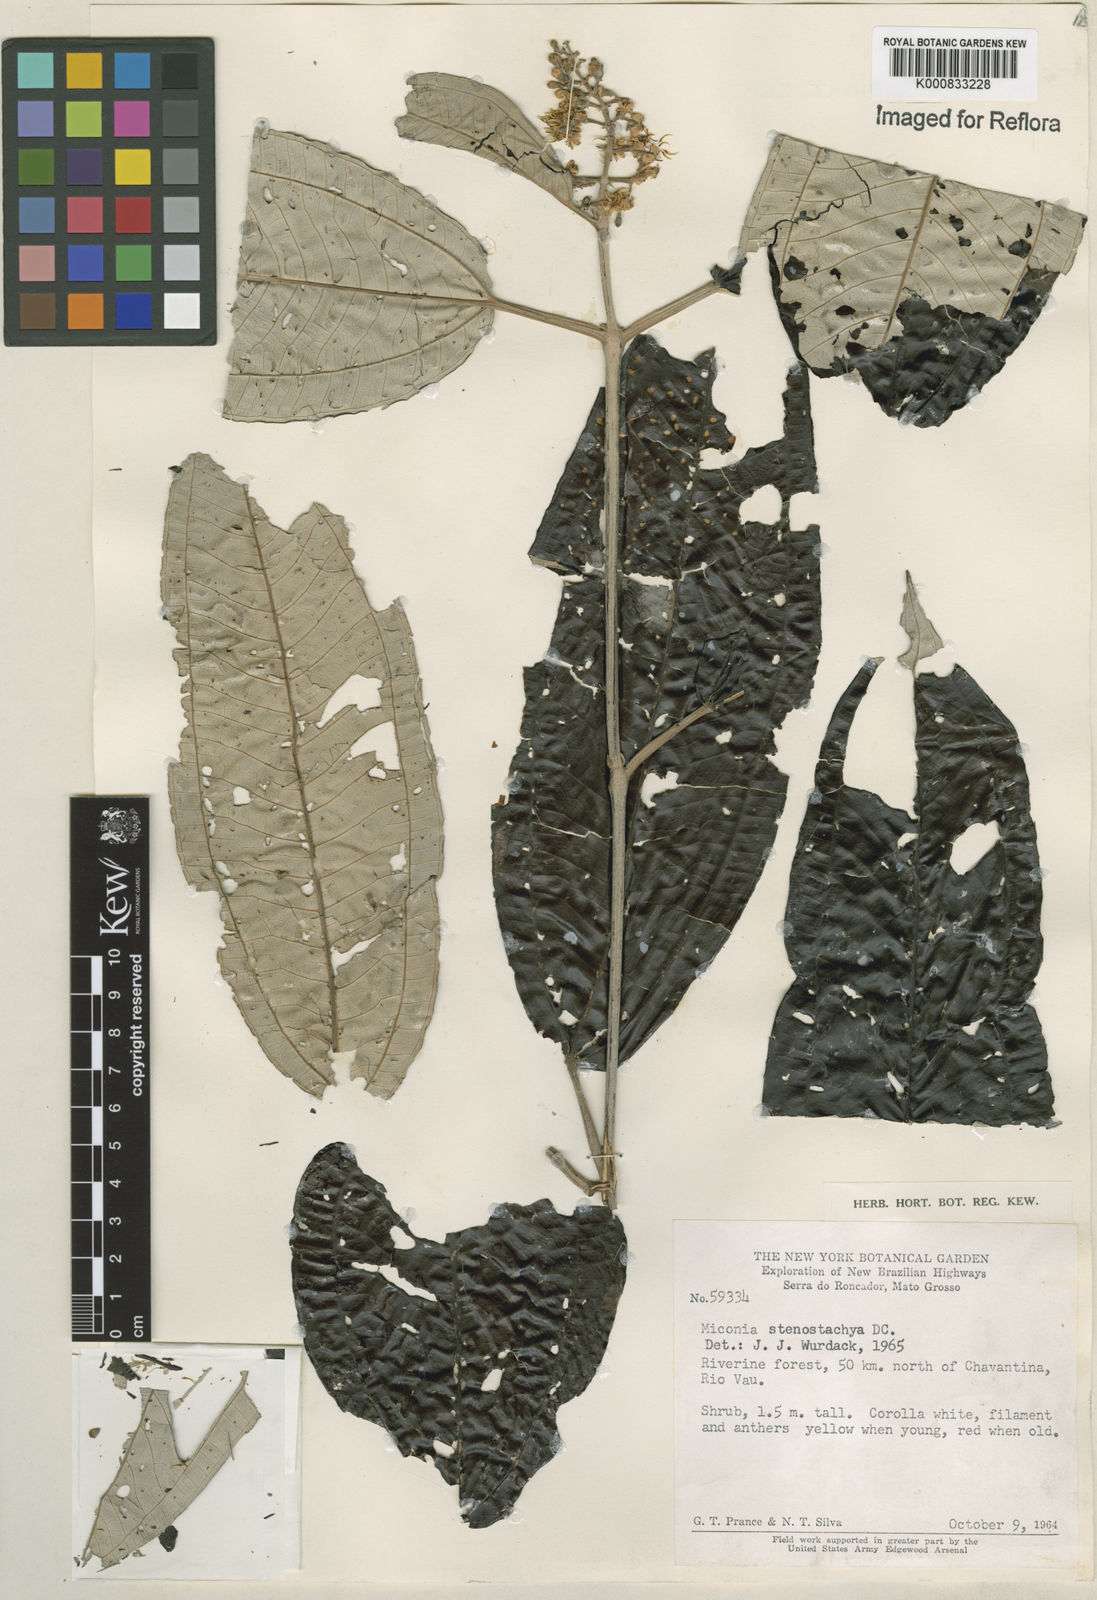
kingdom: Plantae
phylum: Tracheophyta
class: Magnoliopsida
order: Myrtales
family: Melastomataceae
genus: Miconia
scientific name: Miconia stenostachya
